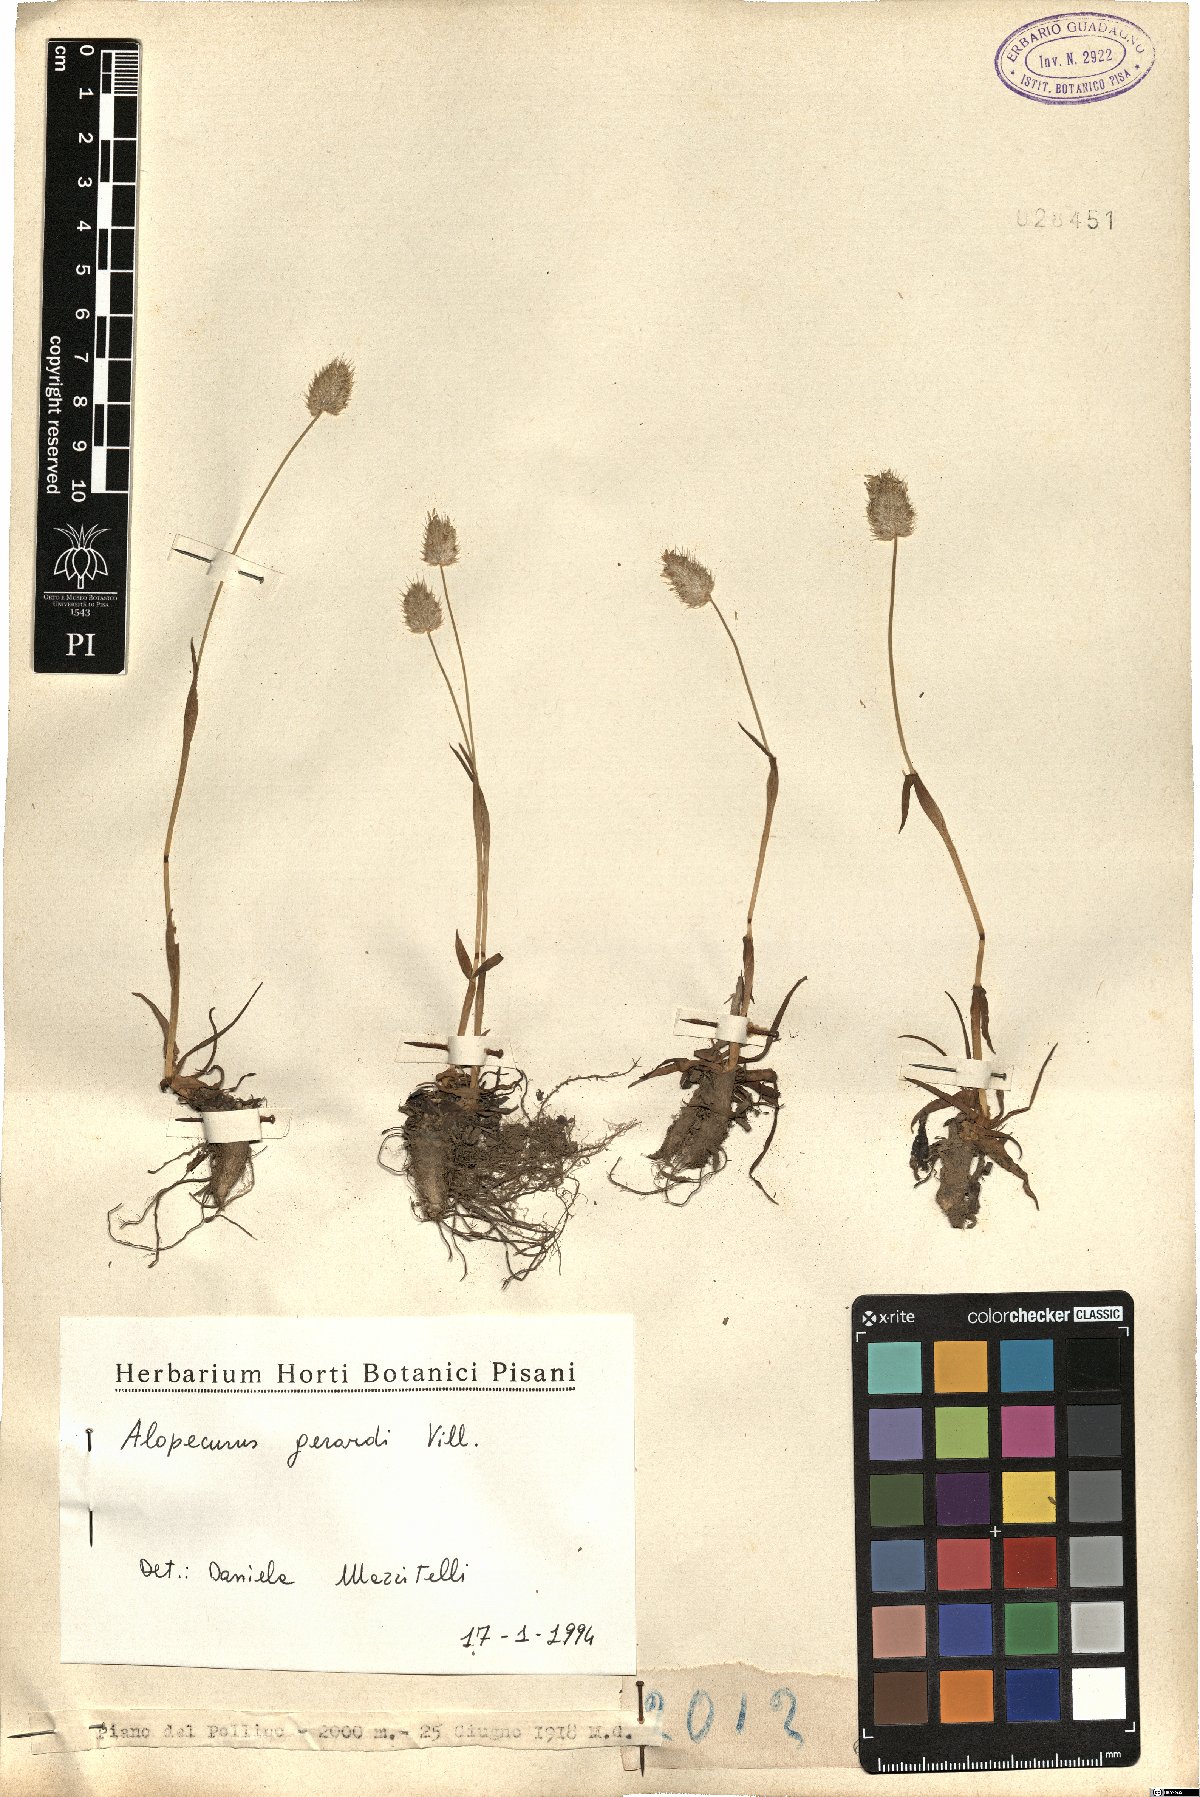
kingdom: Plantae
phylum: Tracheophyta
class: Liliopsida
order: Poales
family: Poaceae
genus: Alopecurus
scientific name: Alopecurus gerardii
